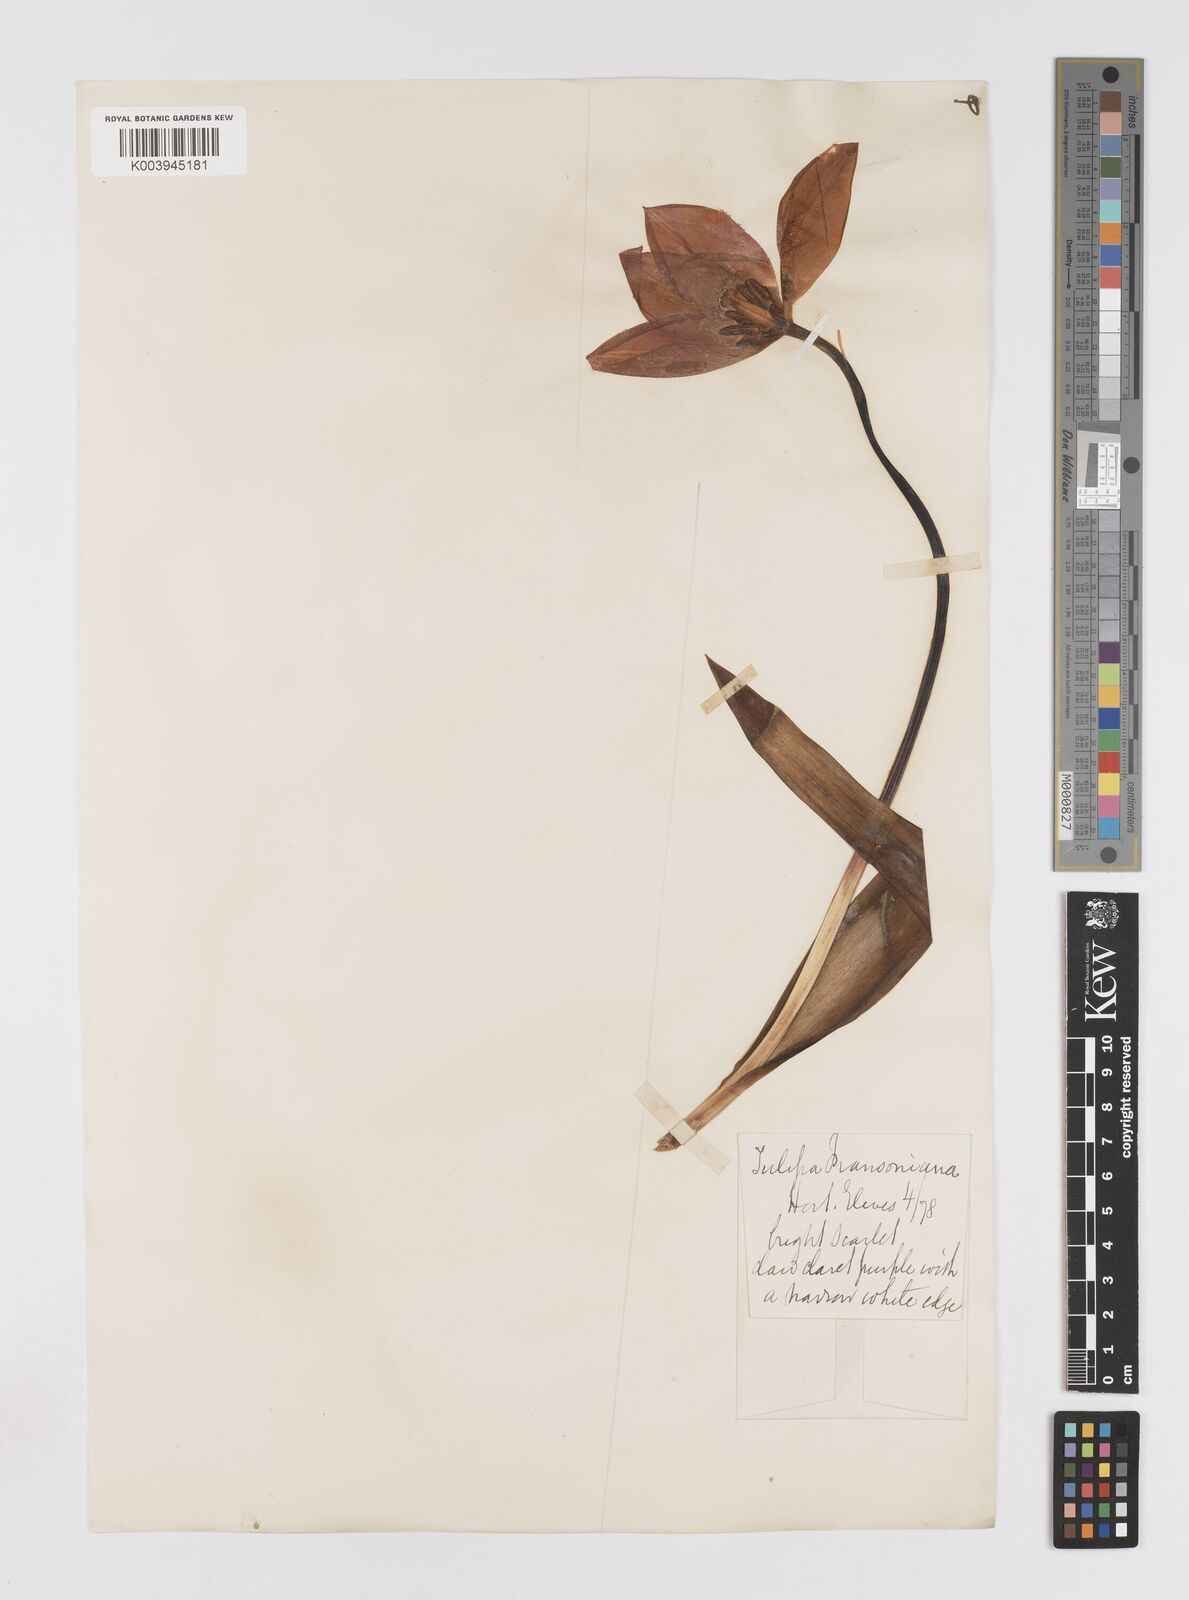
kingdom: Plantae
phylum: Tracheophyta
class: Liliopsida
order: Liliales
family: Liliaceae
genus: Tulipa
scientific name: Tulipa gesneriana
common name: Garden tulip
